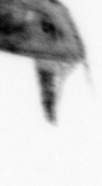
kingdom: Animalia
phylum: Arthropoda
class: Maxillopoda
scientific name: Maxillopoda
